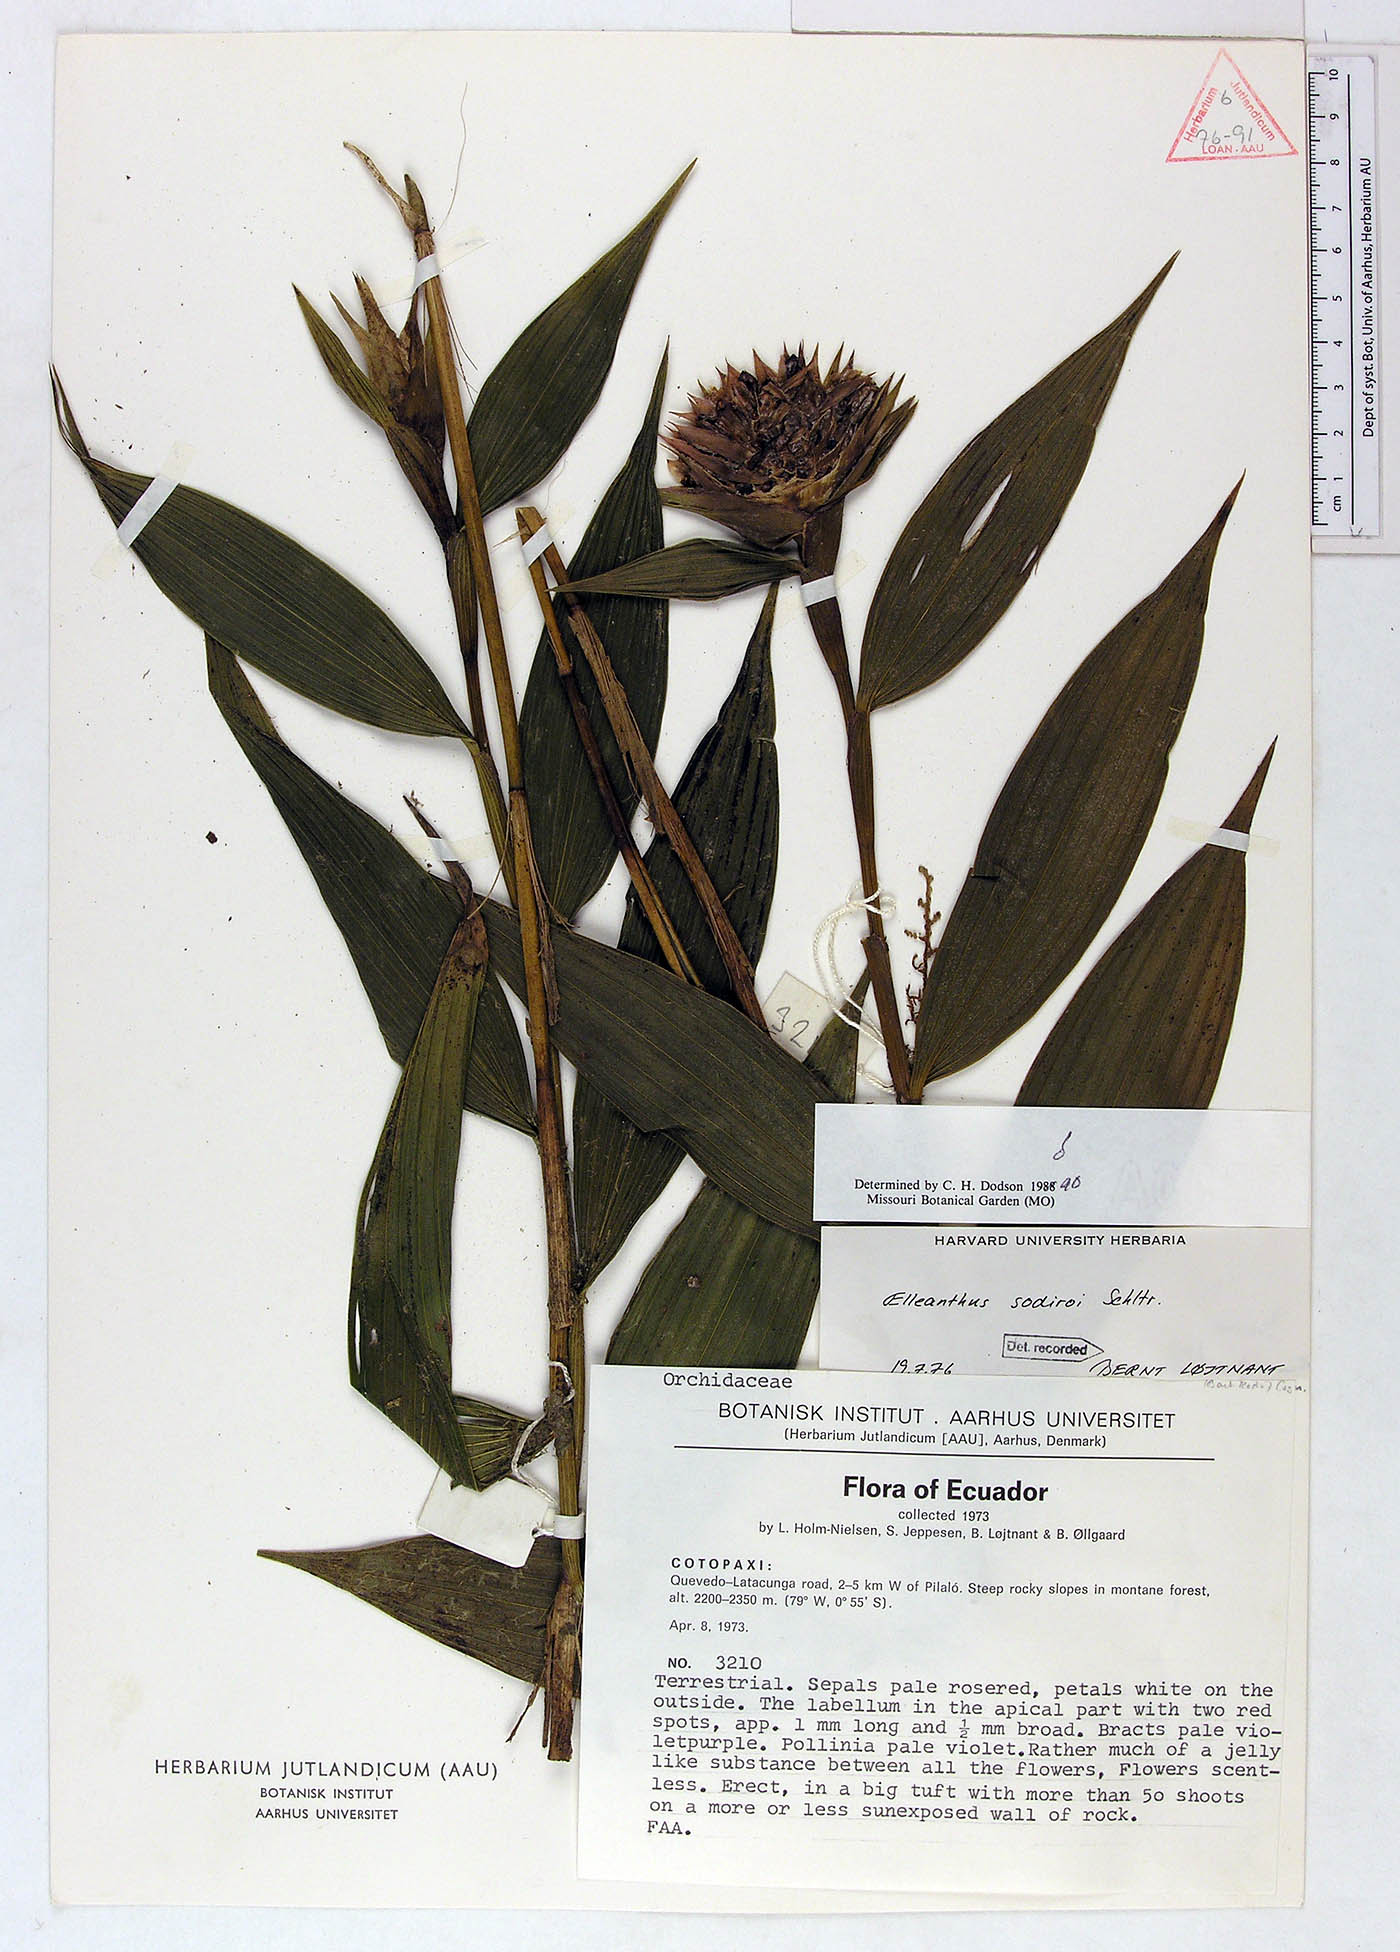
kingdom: Plantae
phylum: Tracheophyta
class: Liliopsida
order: Asparagales
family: Orchidaceae
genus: Elleanthus
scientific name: Elleanthus capitatus
